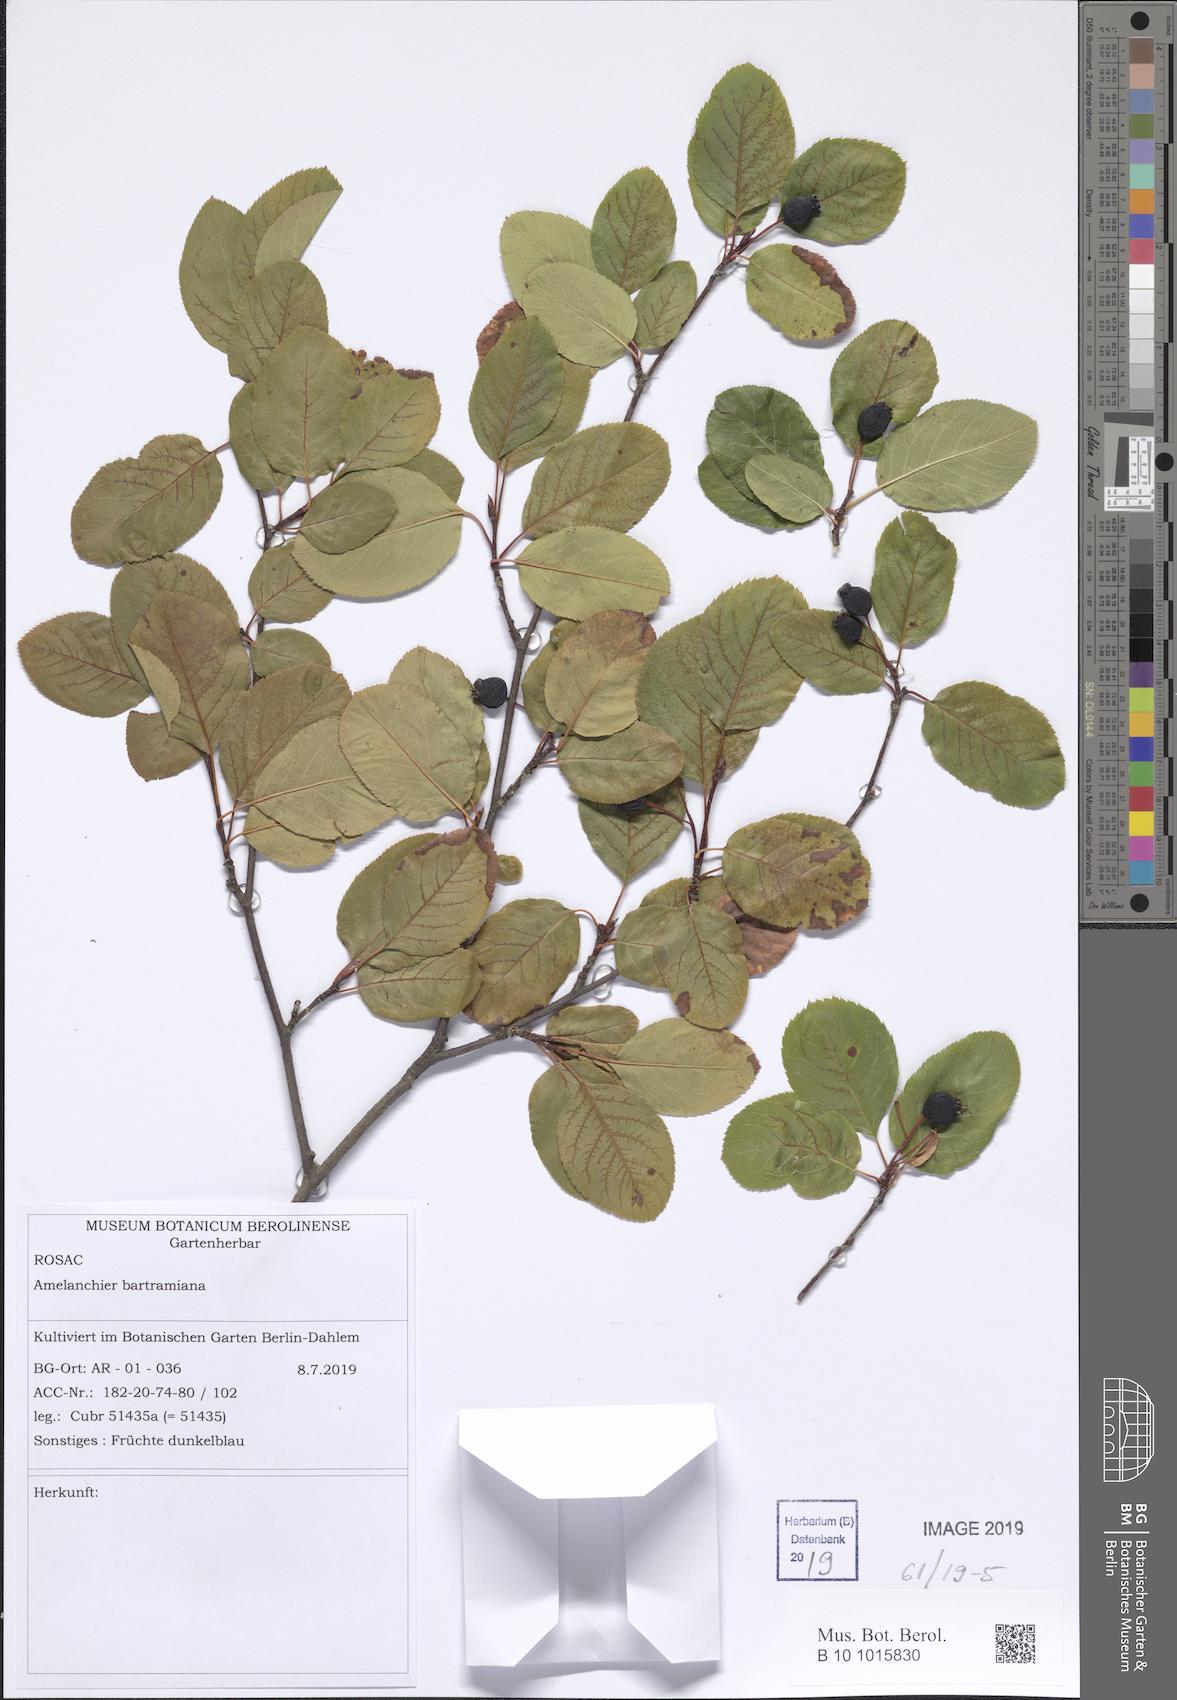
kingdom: Plantae
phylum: Tracheophyta
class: Magnoliopsida
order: Rosales
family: Rosaceae
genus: Amelanchier
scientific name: Amelanchier bartramiana
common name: Mountain serviceberry
